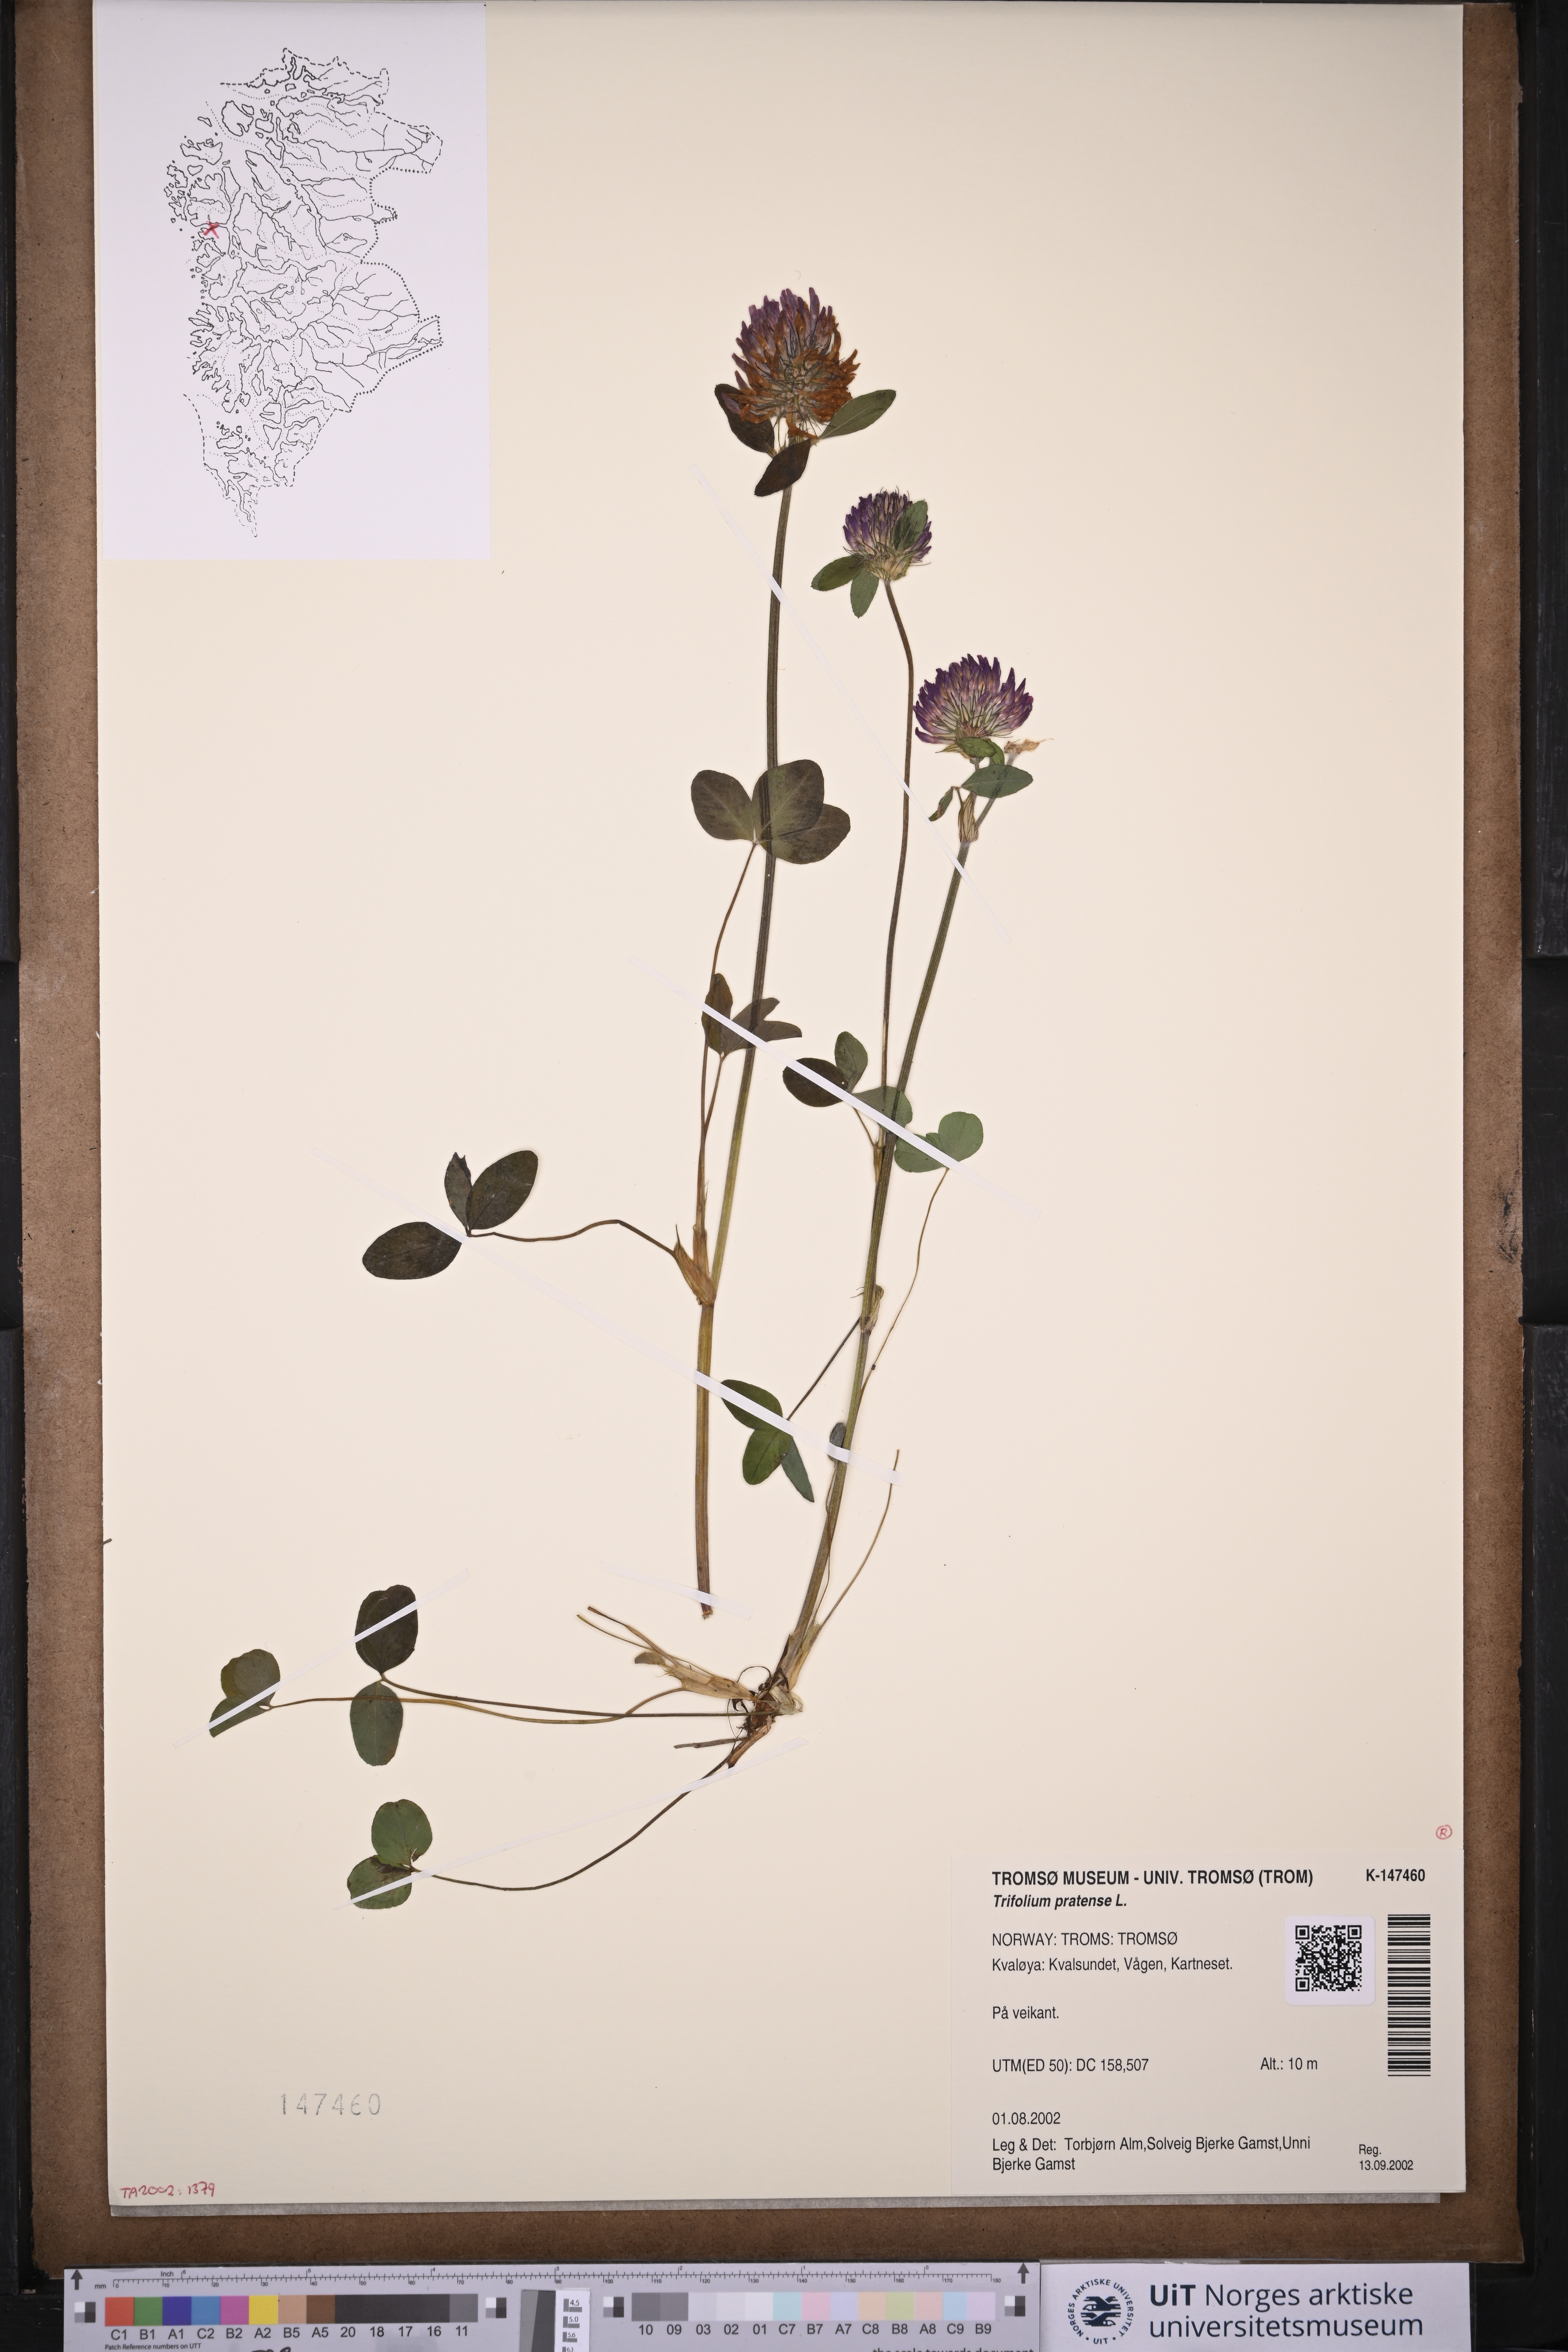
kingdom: Plantae
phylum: Tracheophyta
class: Magnoliopsida
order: Fabales
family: Fabaceae
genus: Trifolium
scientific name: Trifolium pratense
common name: Red clover
